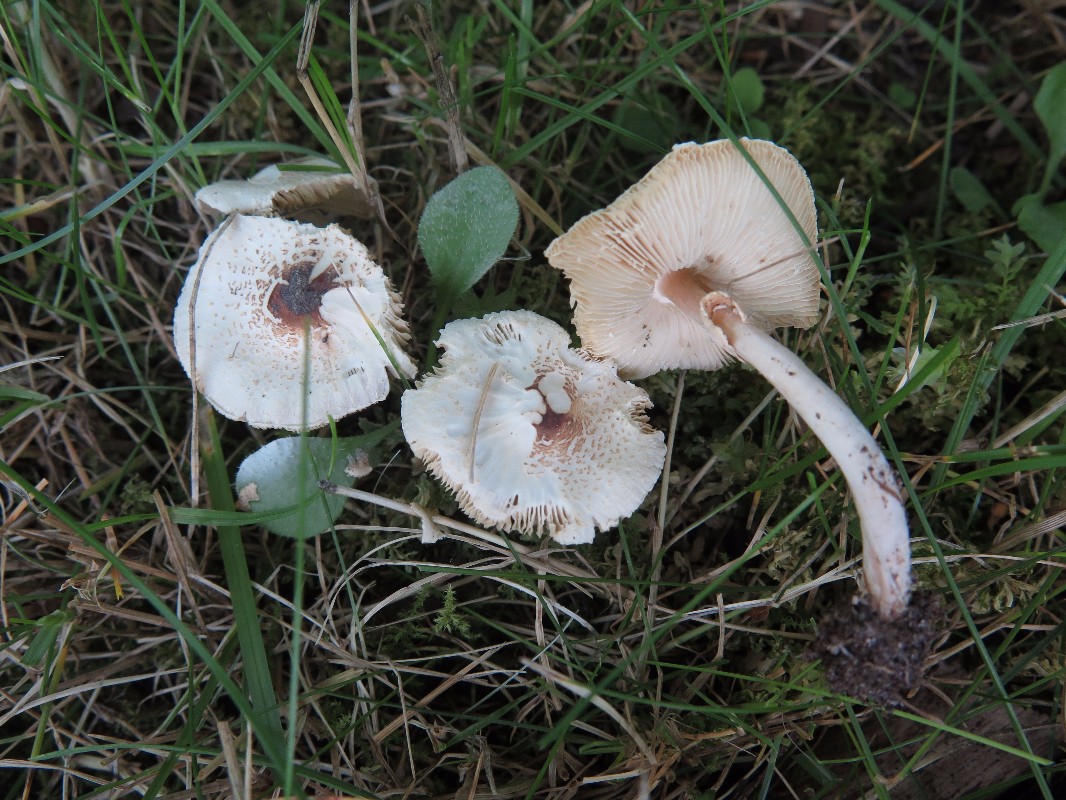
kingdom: Fungi
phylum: Basidiomycota
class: Agaricomycetes
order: Agaricales
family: Agaricaceae
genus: Lepiota
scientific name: Lepiota lilacea
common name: lillabrun parasolhat
